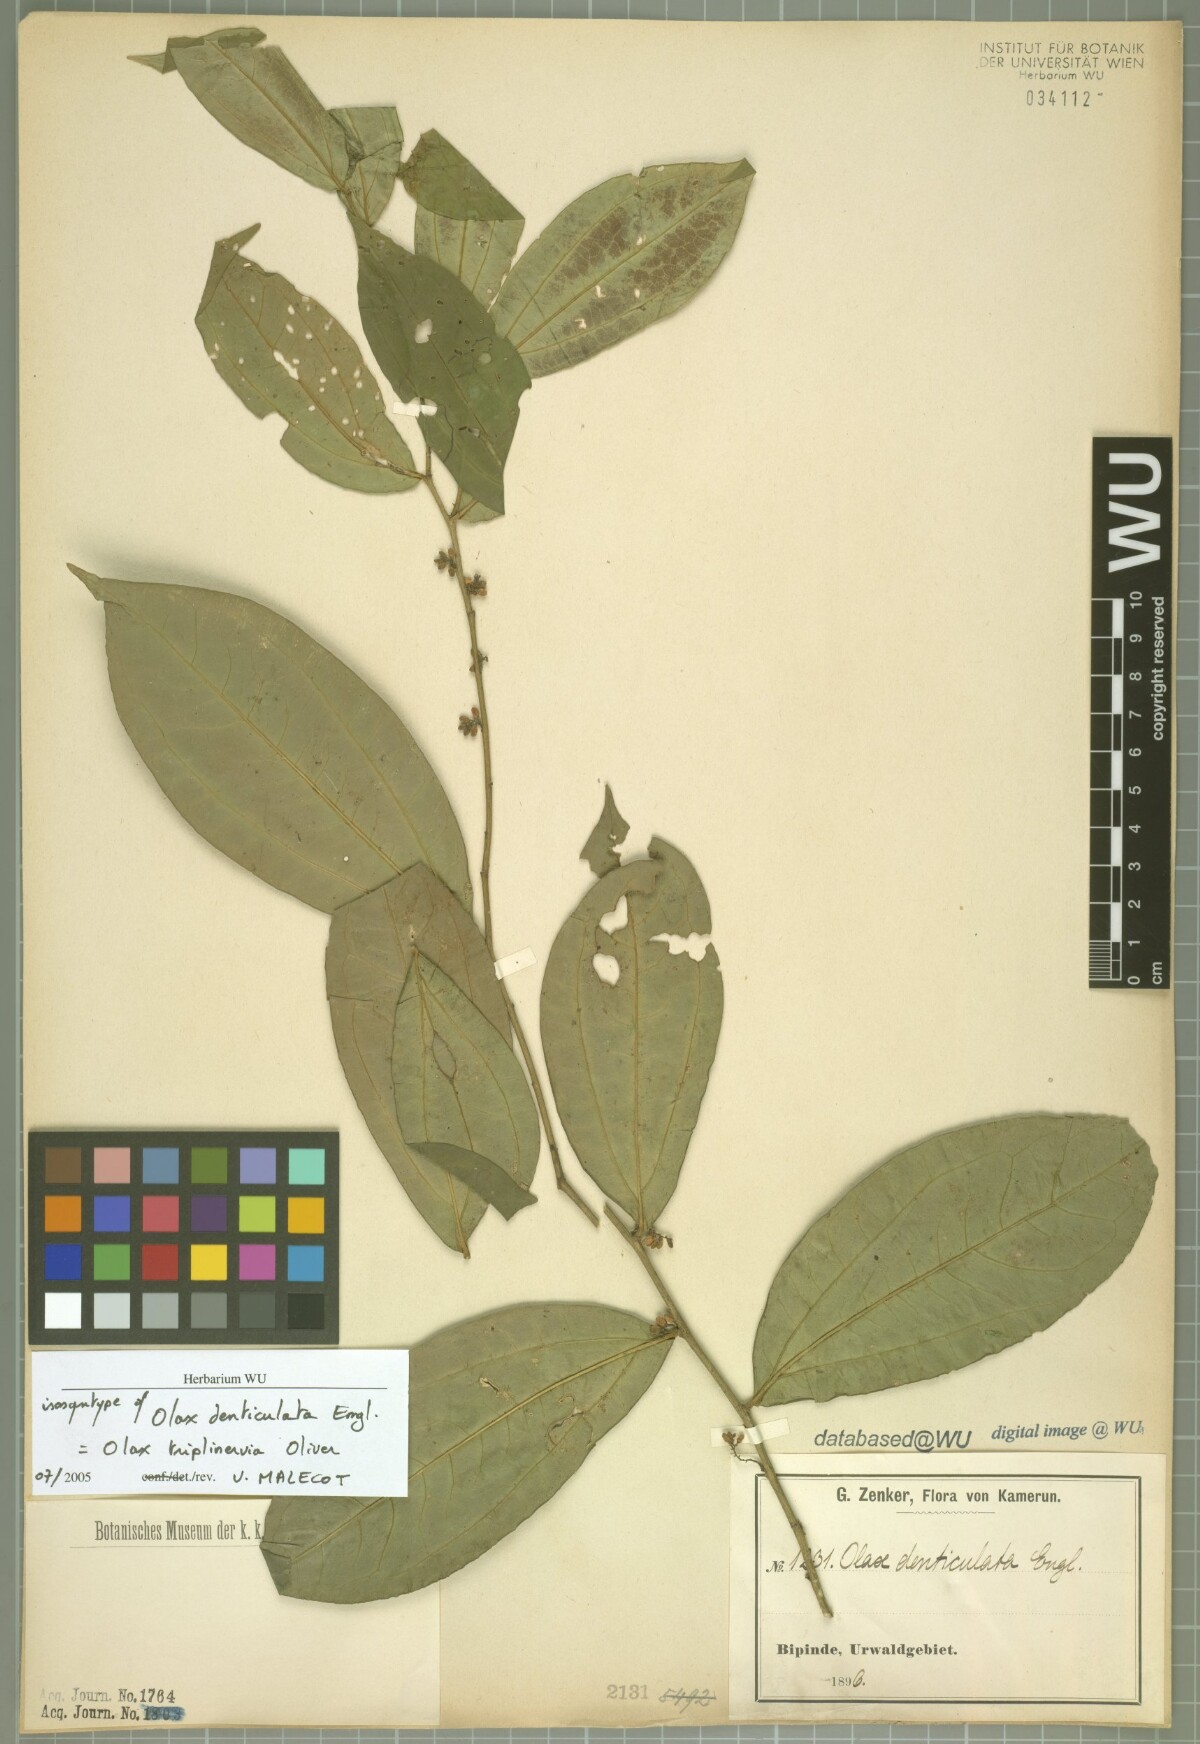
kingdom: Plantae
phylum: Tracheophyta
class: Magnoliopsida
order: Santalales
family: Olacaceae
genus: Olax
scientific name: Olax triplinervia
